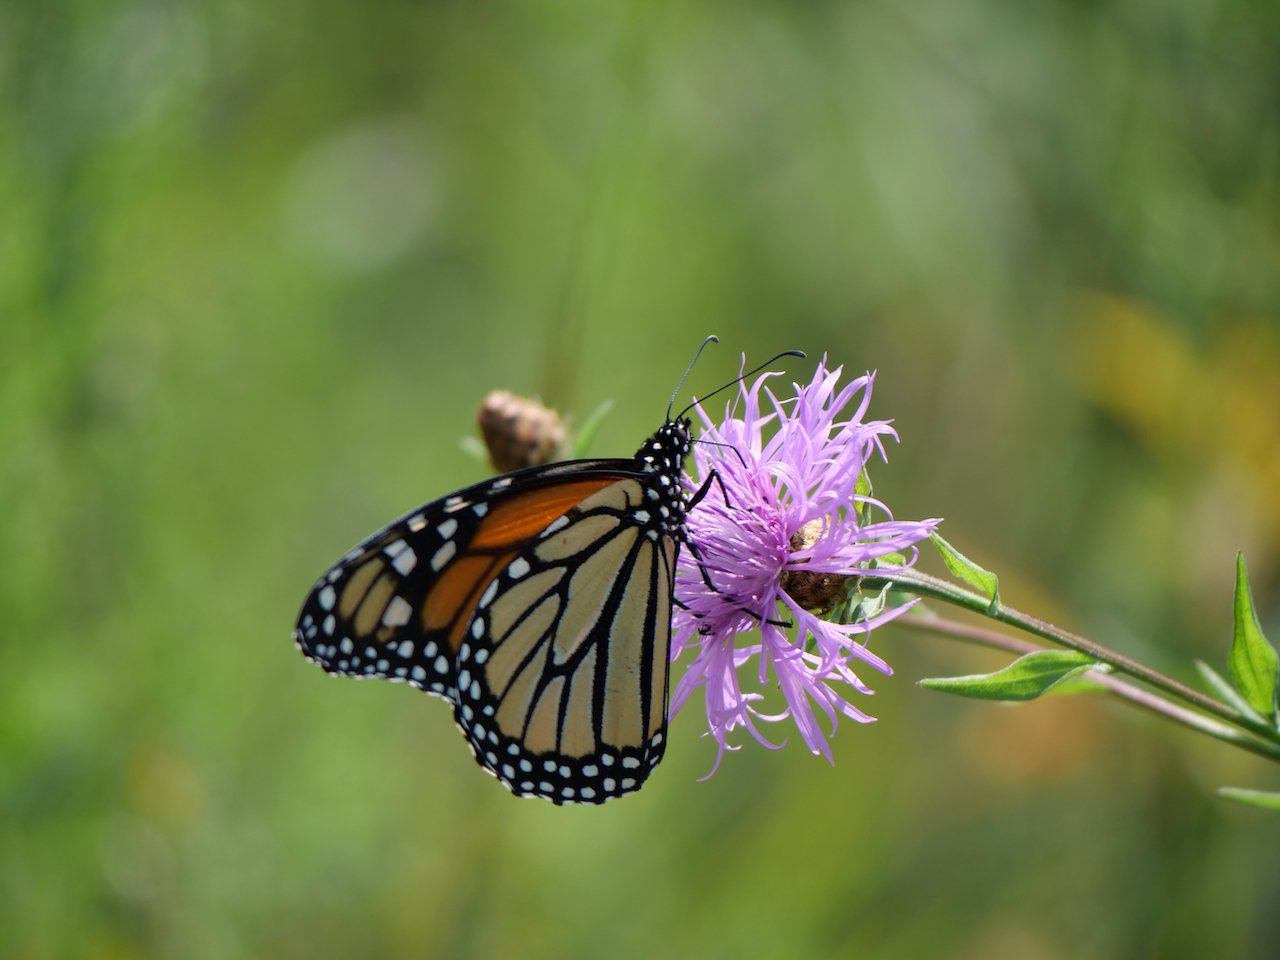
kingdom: Animalia
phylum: Arthropoda
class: Insecta
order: Lepidoptera
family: Nymphalidae
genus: Danaus
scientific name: Danaus plexippus
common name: Monarch
